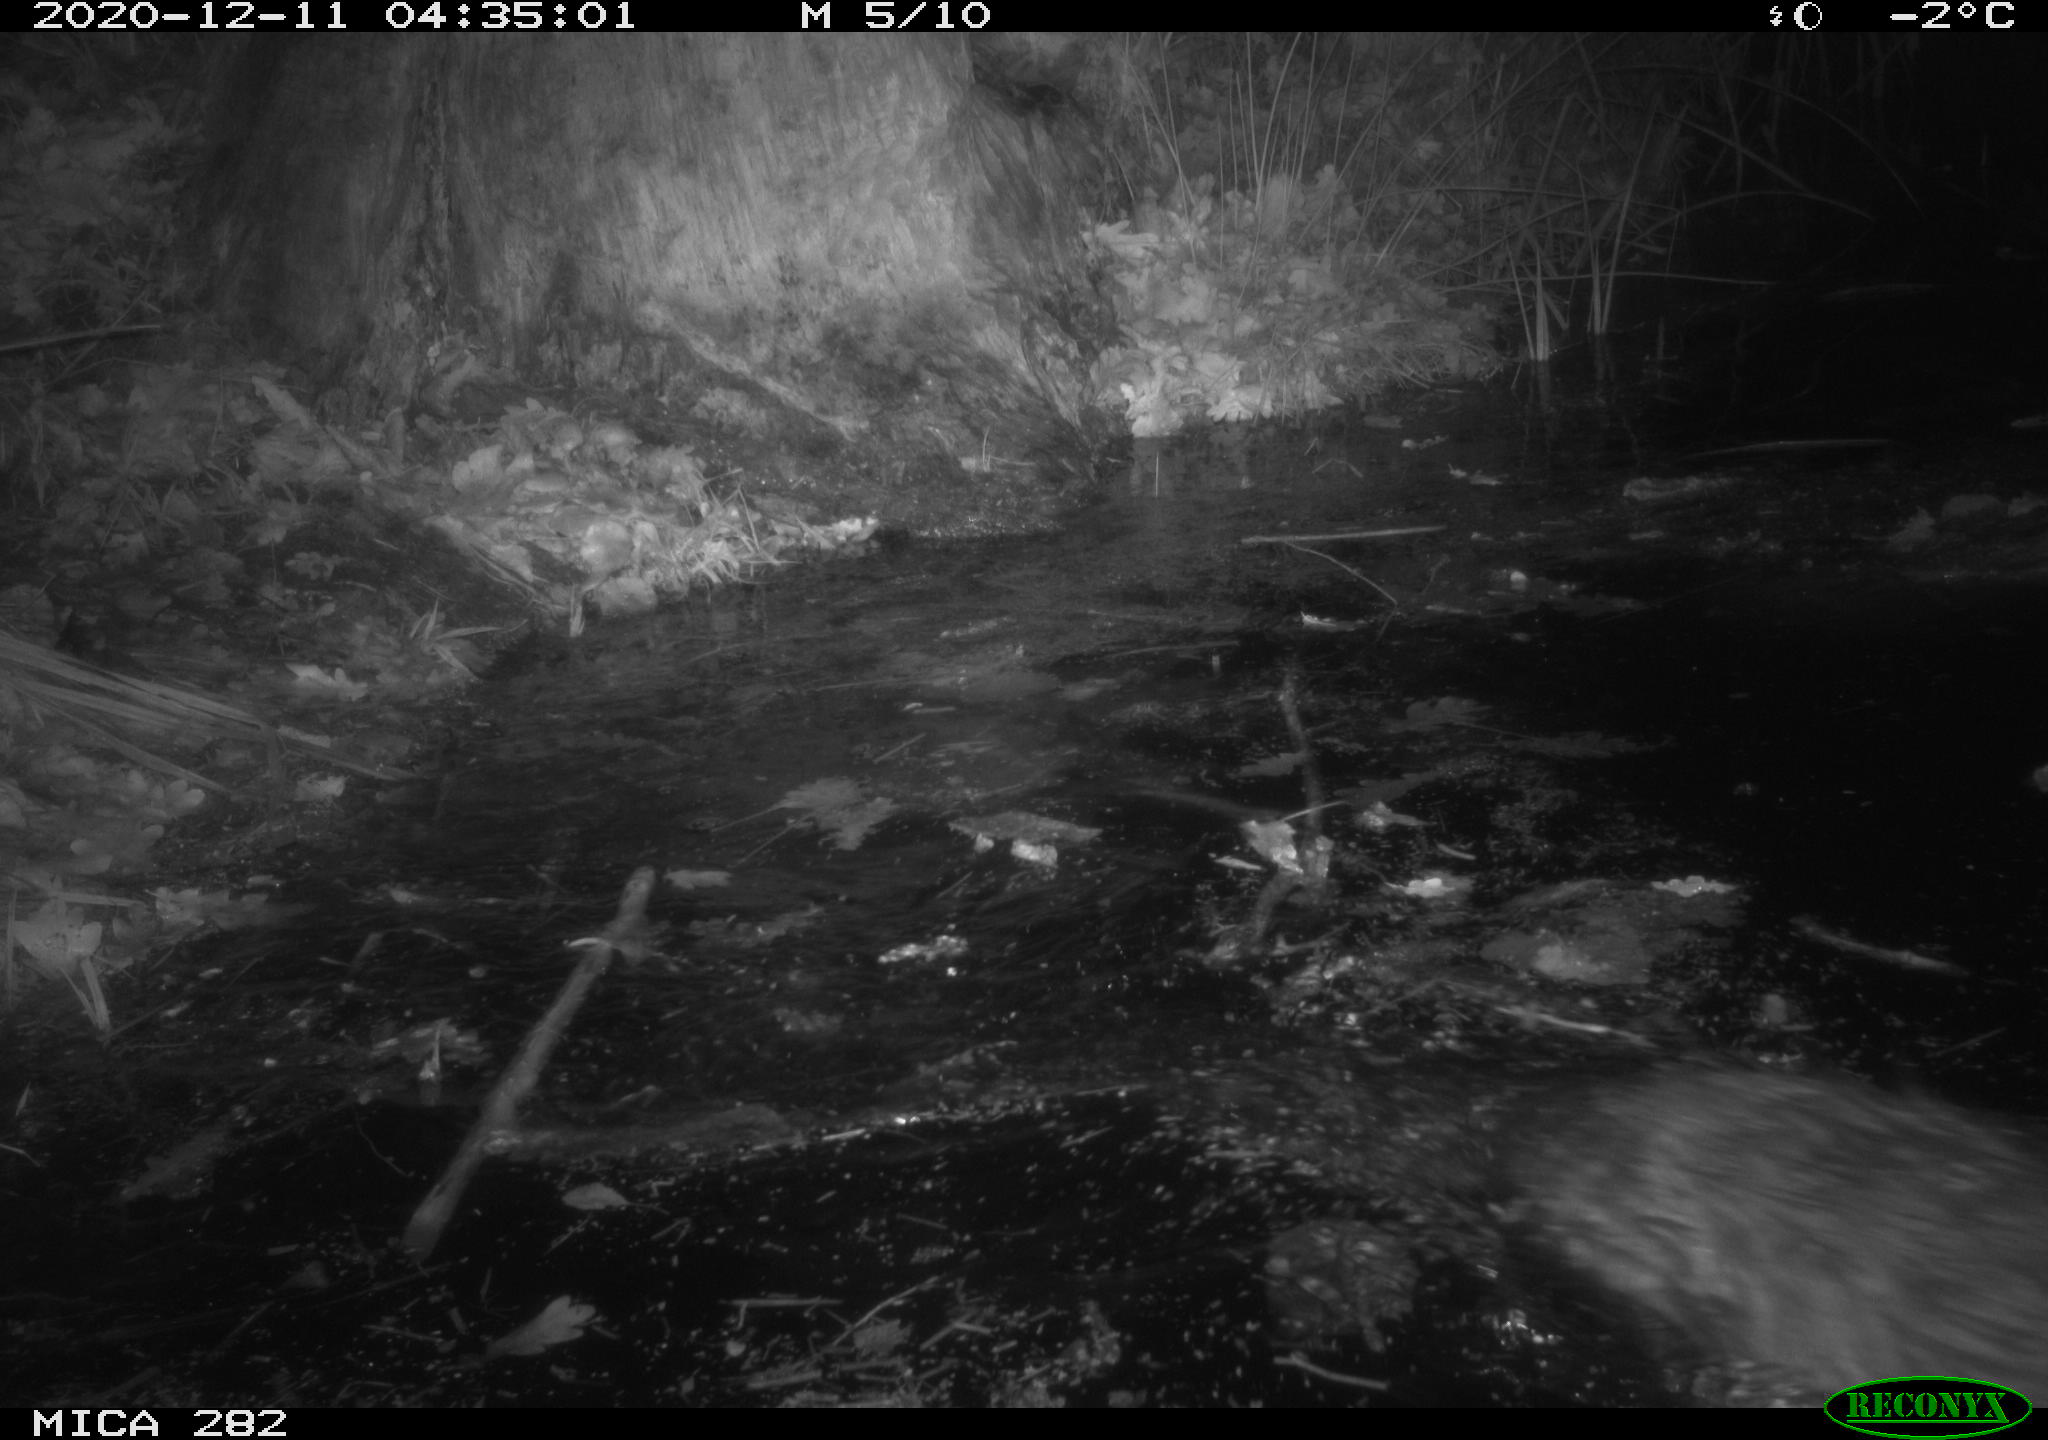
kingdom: Animalia
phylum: Chordata
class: Mammalia
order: Rodentia
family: Castoridae
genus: Castor
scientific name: Castor fiber
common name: Eurasian beaver
